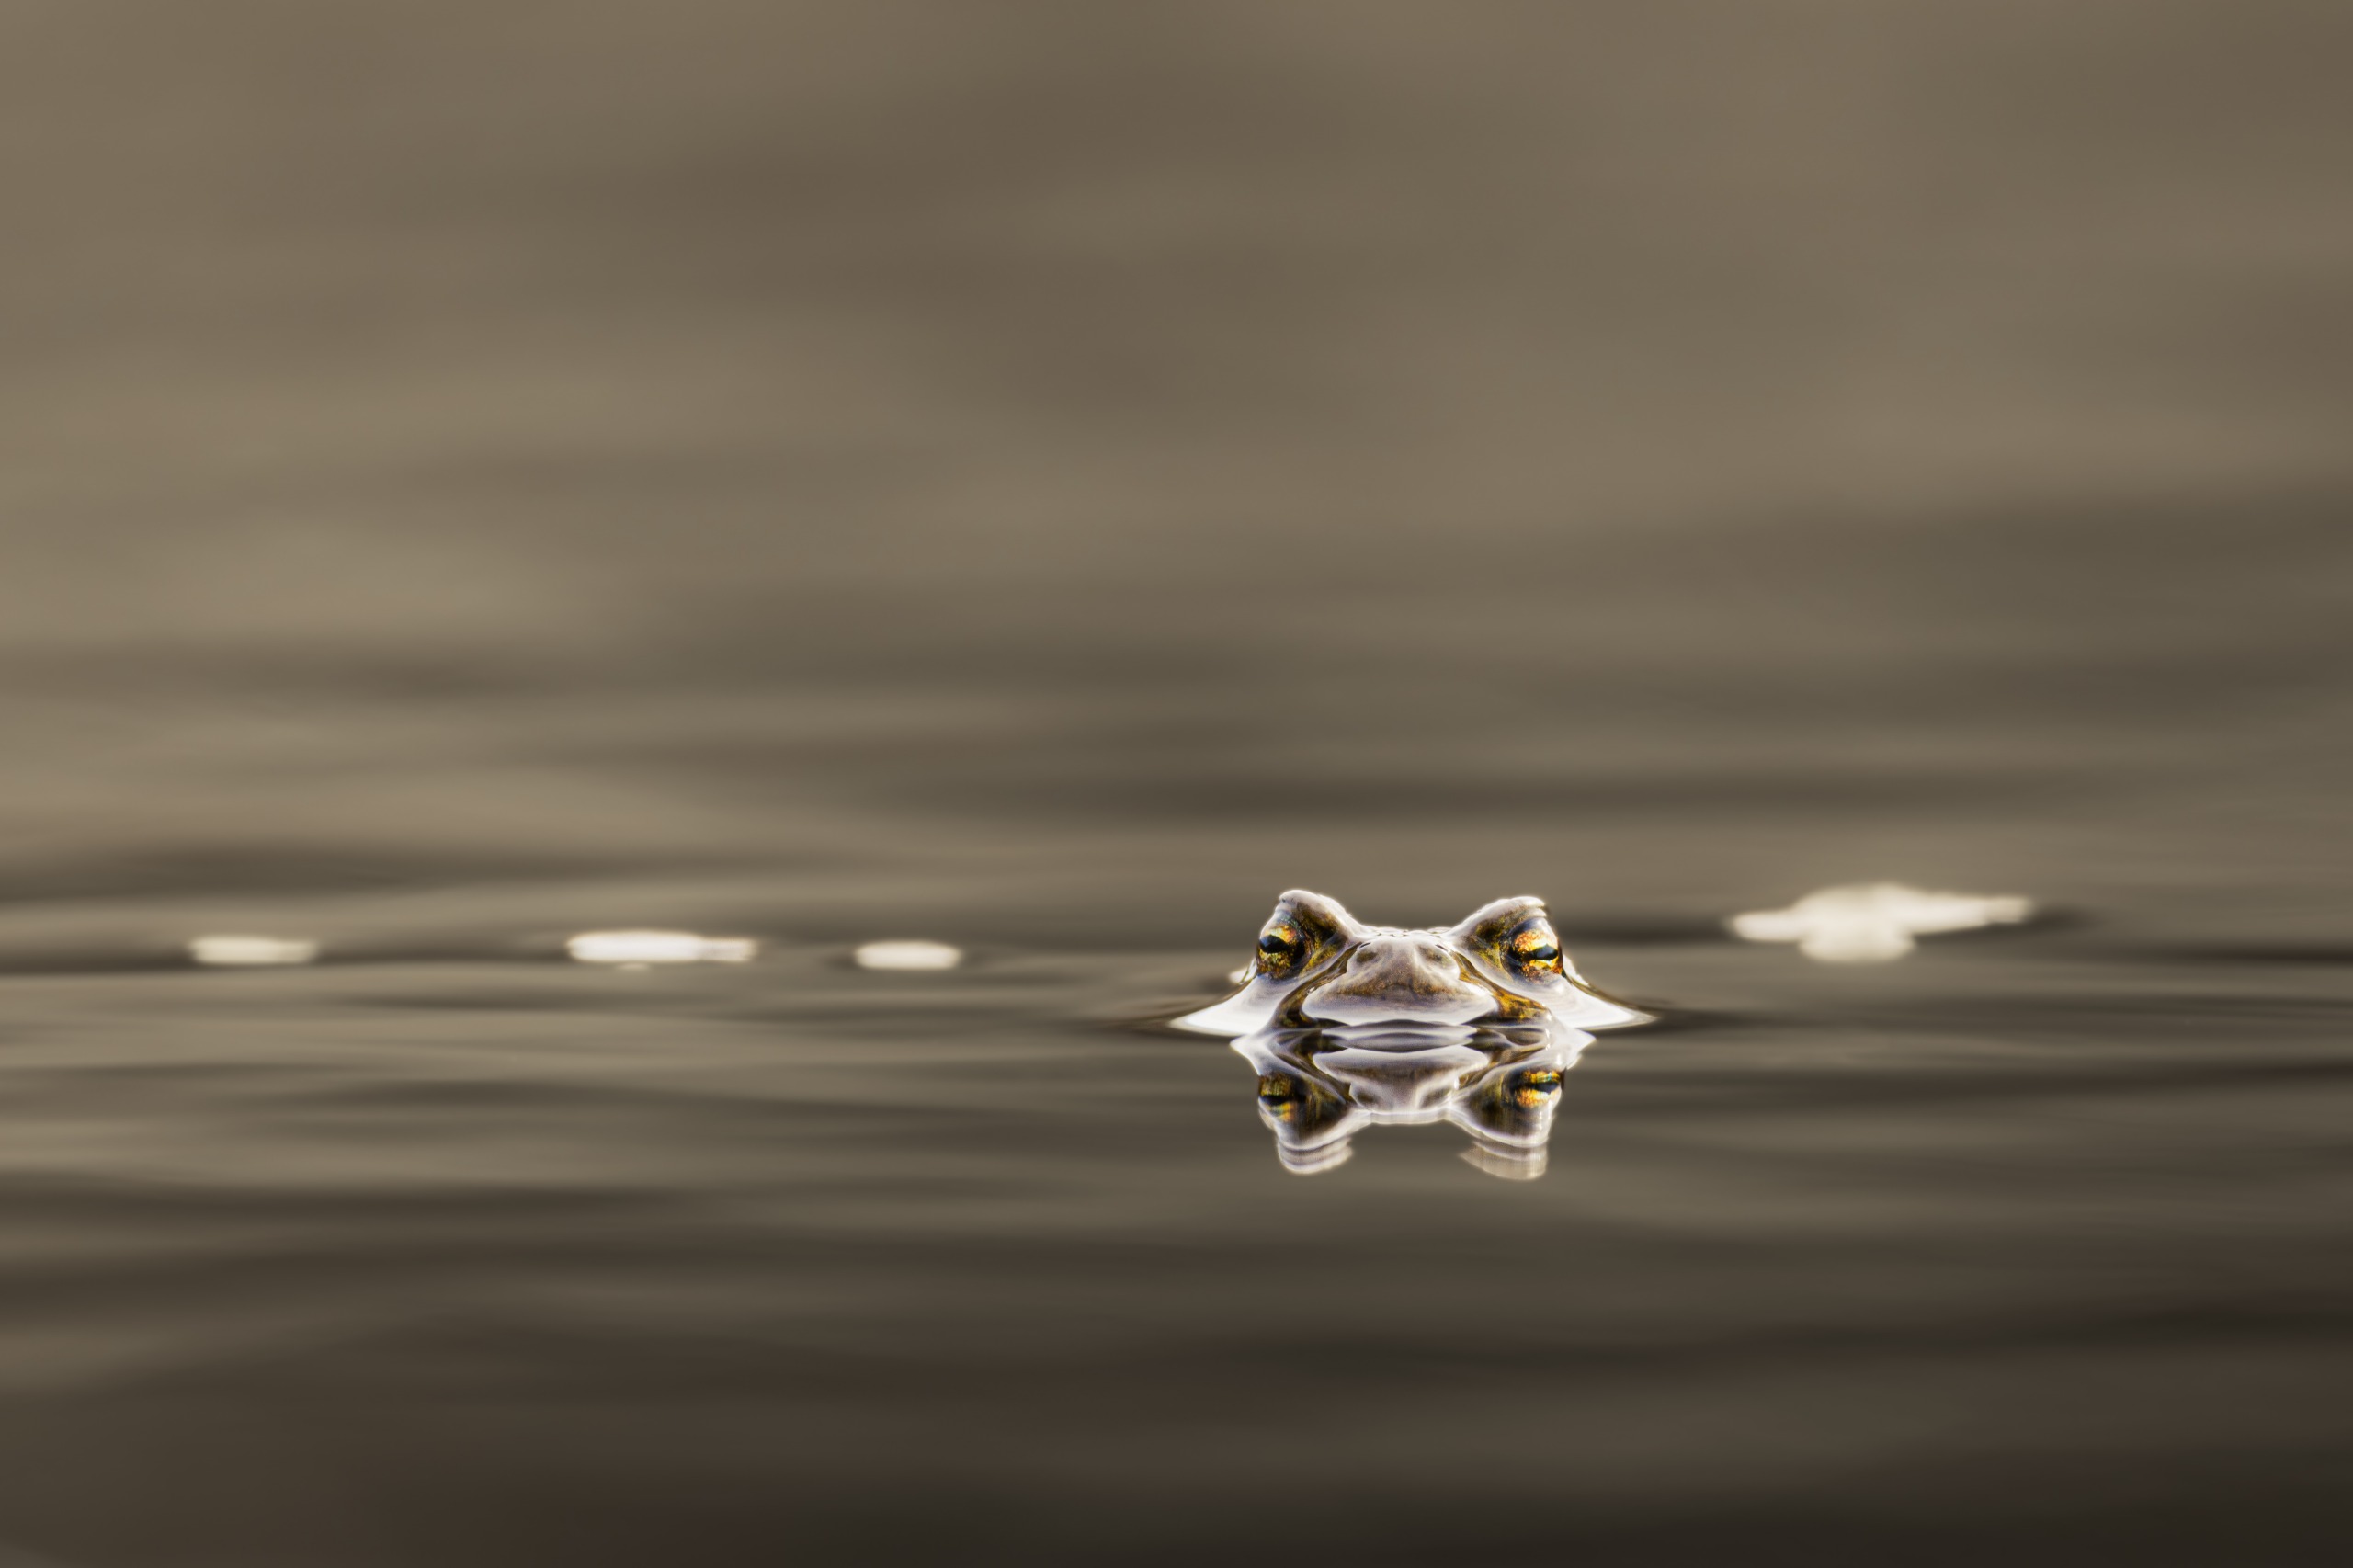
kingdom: Animalia
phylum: Chordata
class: Amphibia
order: Anura
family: Bufonidae
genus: Bufo
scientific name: Bufo bufo
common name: Skrubtudse
